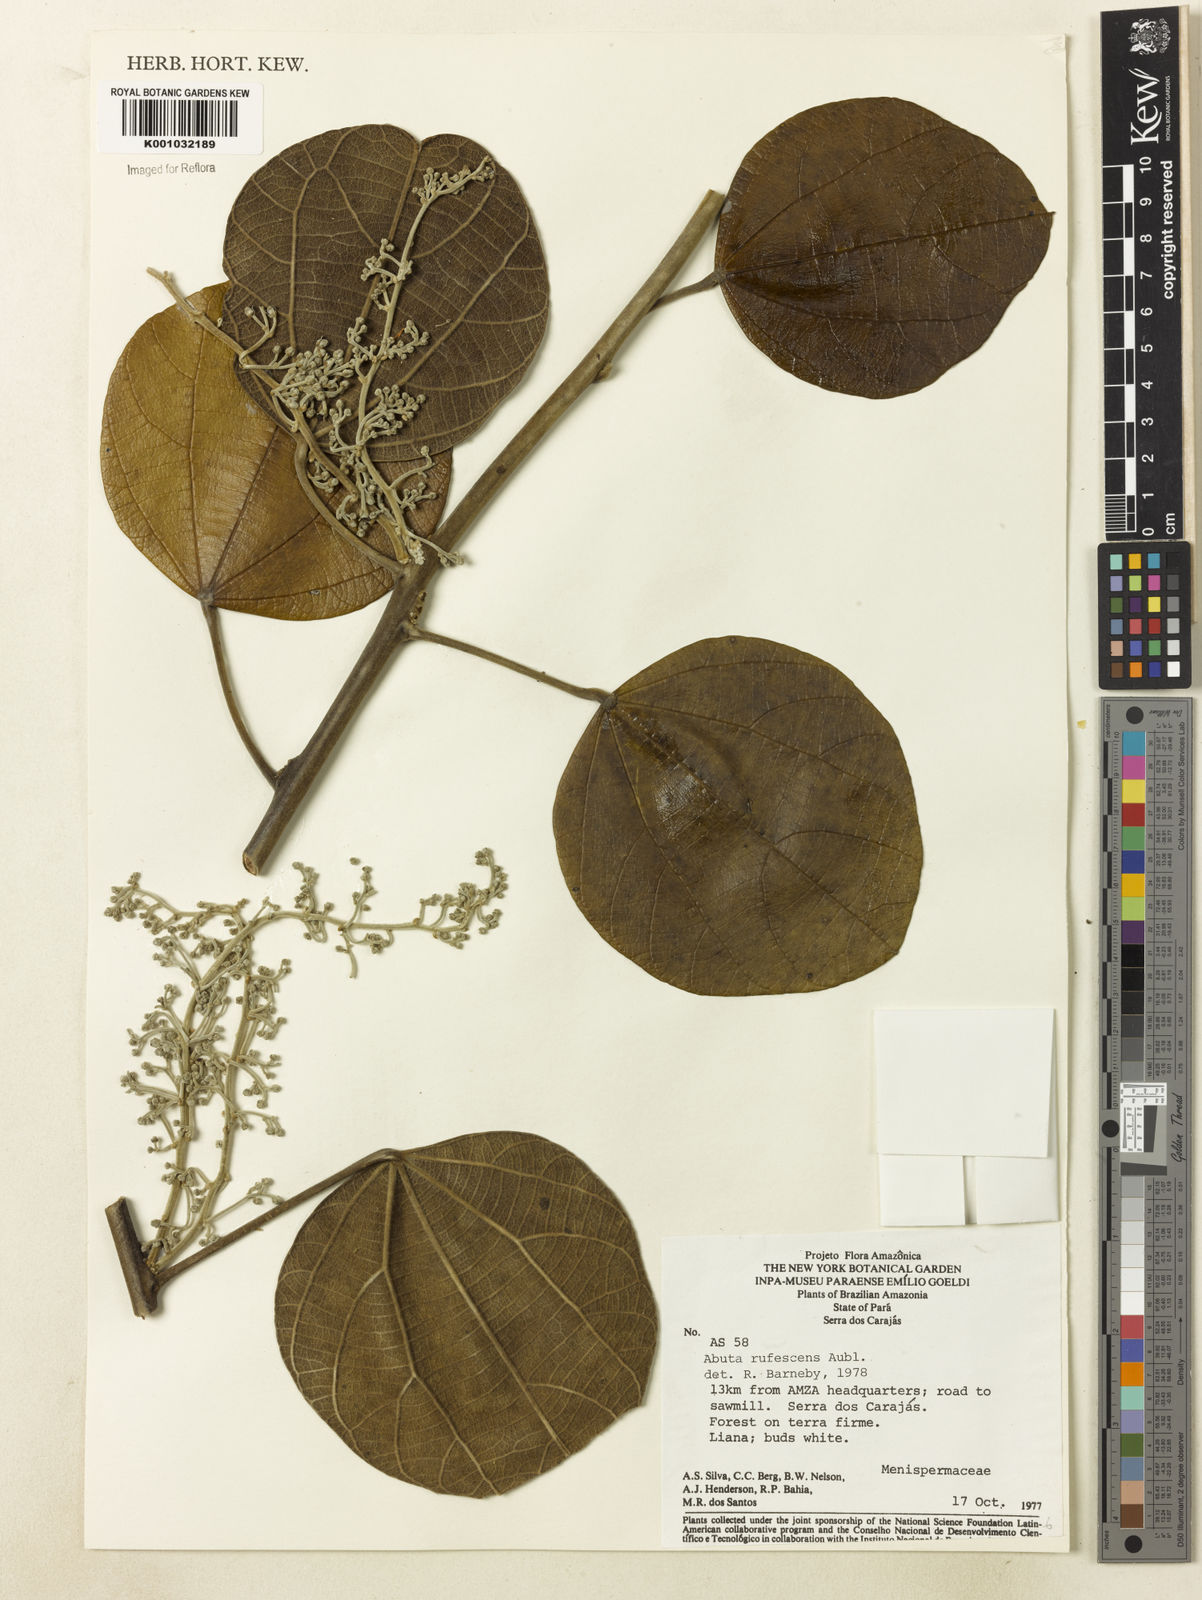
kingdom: Plantae
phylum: Tracheophyta
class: Magnoliopsida
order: Ranunculales
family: Menispermaceae
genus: Abuta
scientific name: Abuta
